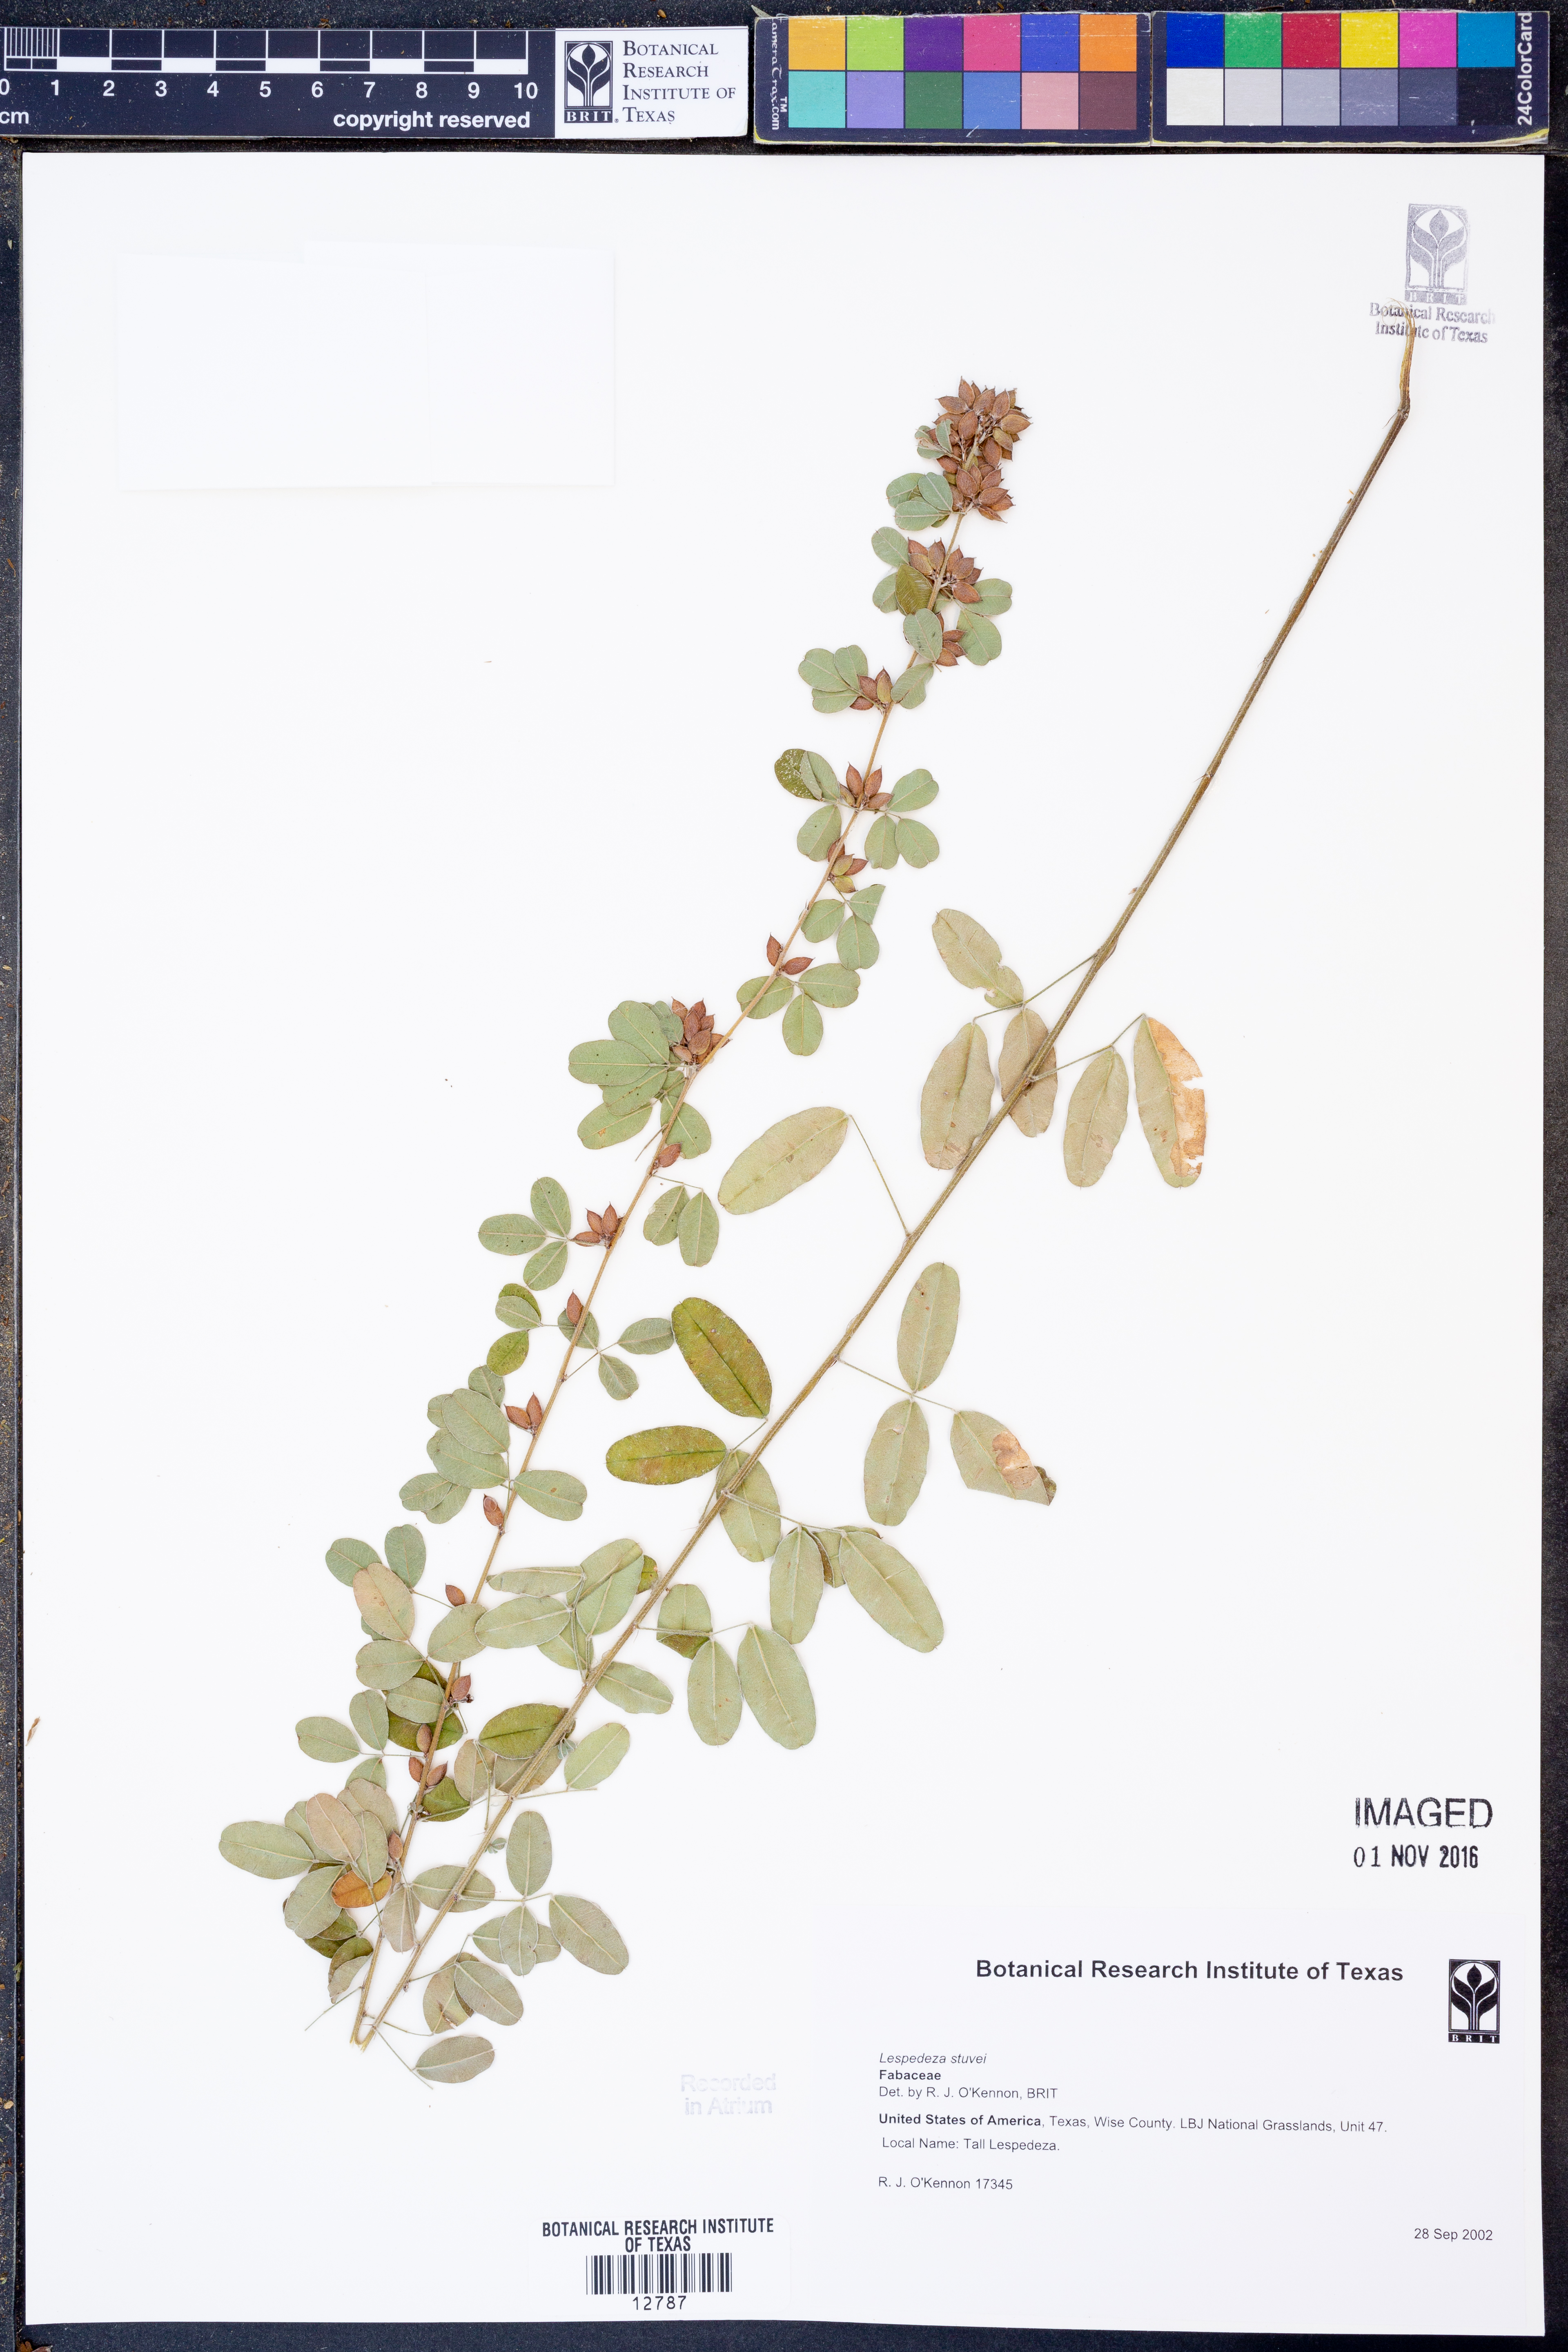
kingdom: Plantae
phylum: Tracheophyta
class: Magnoliopsida
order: Fabales
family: Fabaceae
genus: Lespedeza
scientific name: Lespedeza stuevei
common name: Tall bush-clover
